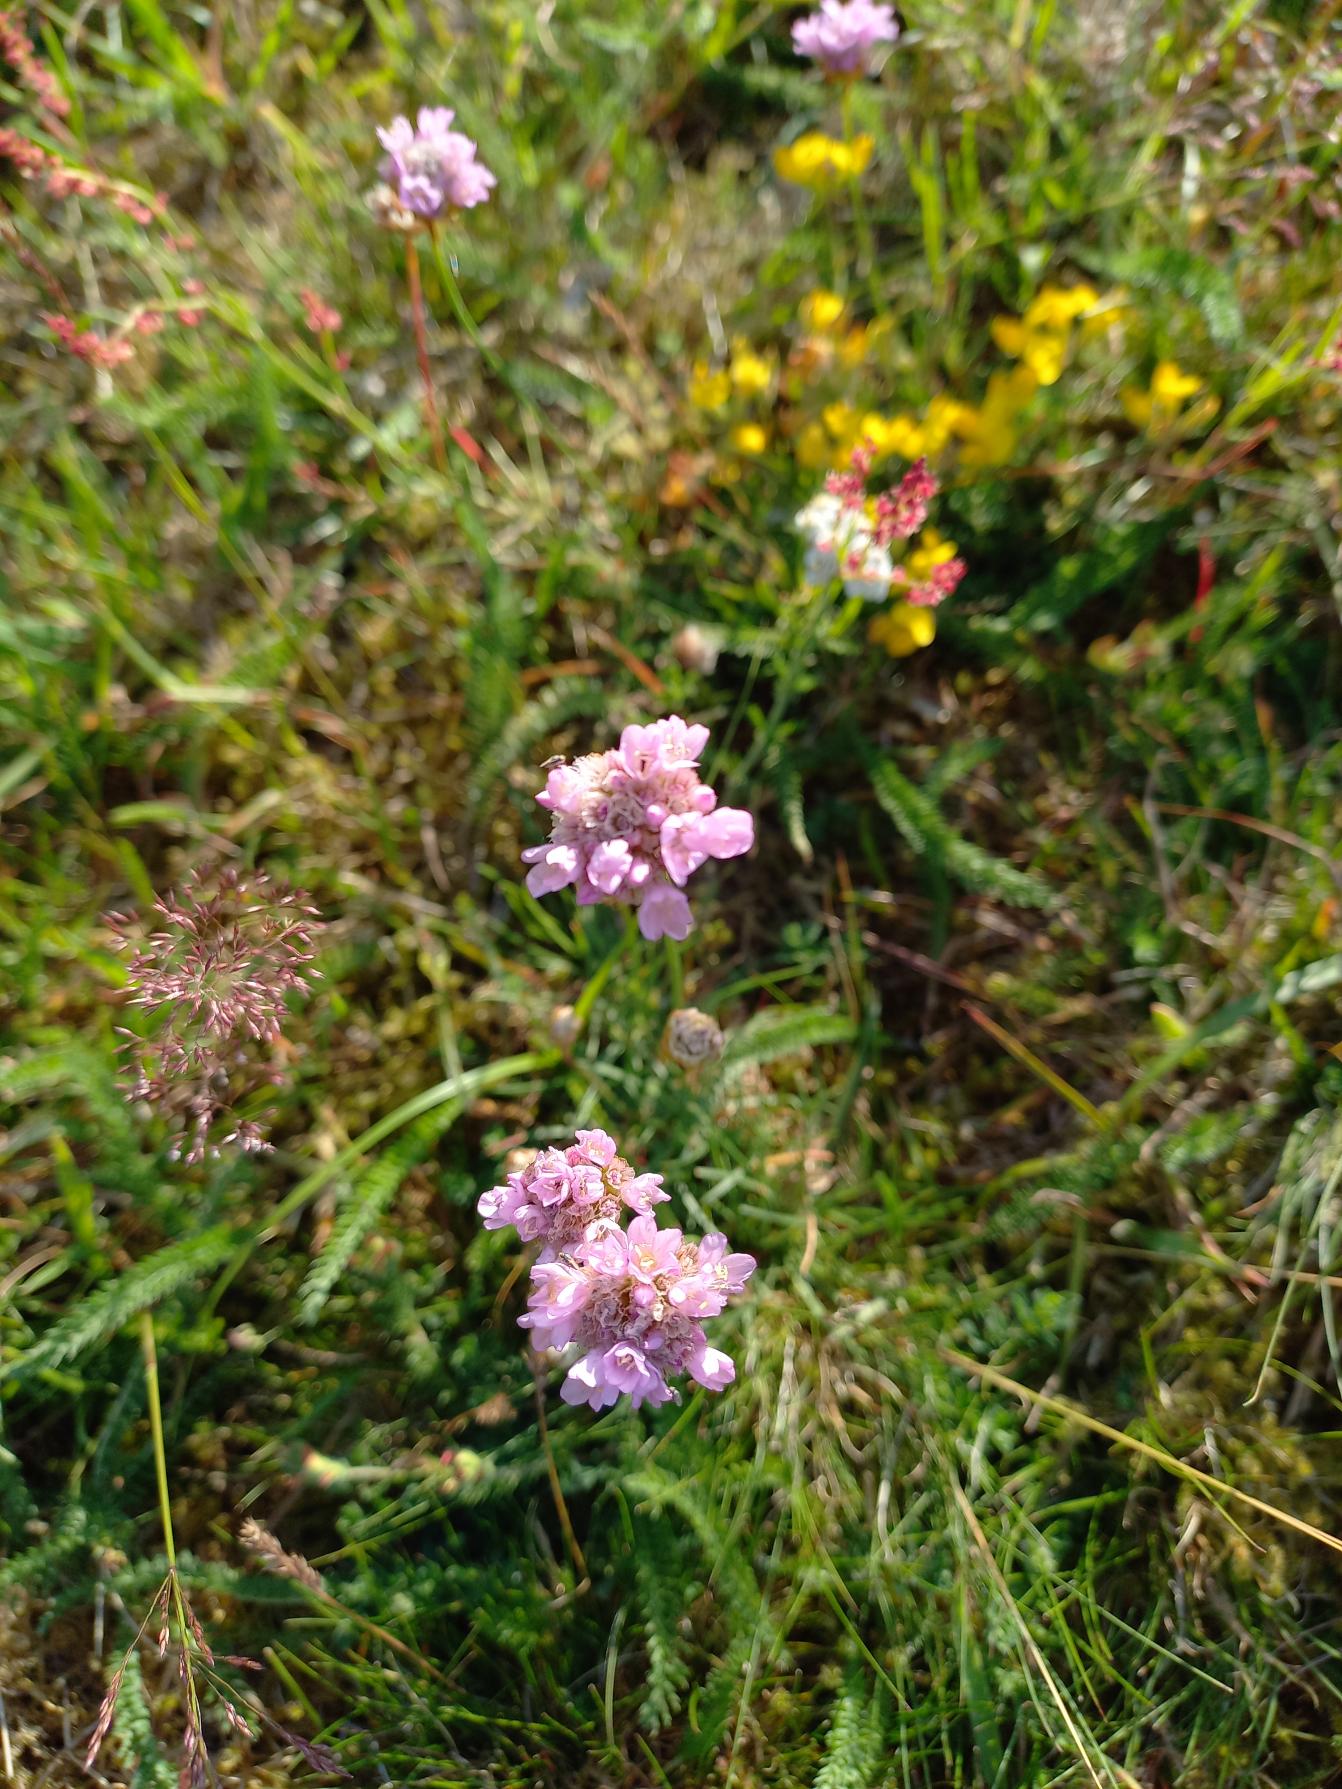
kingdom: Plantae
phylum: Tracheophyta
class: Magnoliopsida
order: Caryophyllales
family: Plumbaginaceae
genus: Armeria
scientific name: Armeria maritima
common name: Engelskgræs
